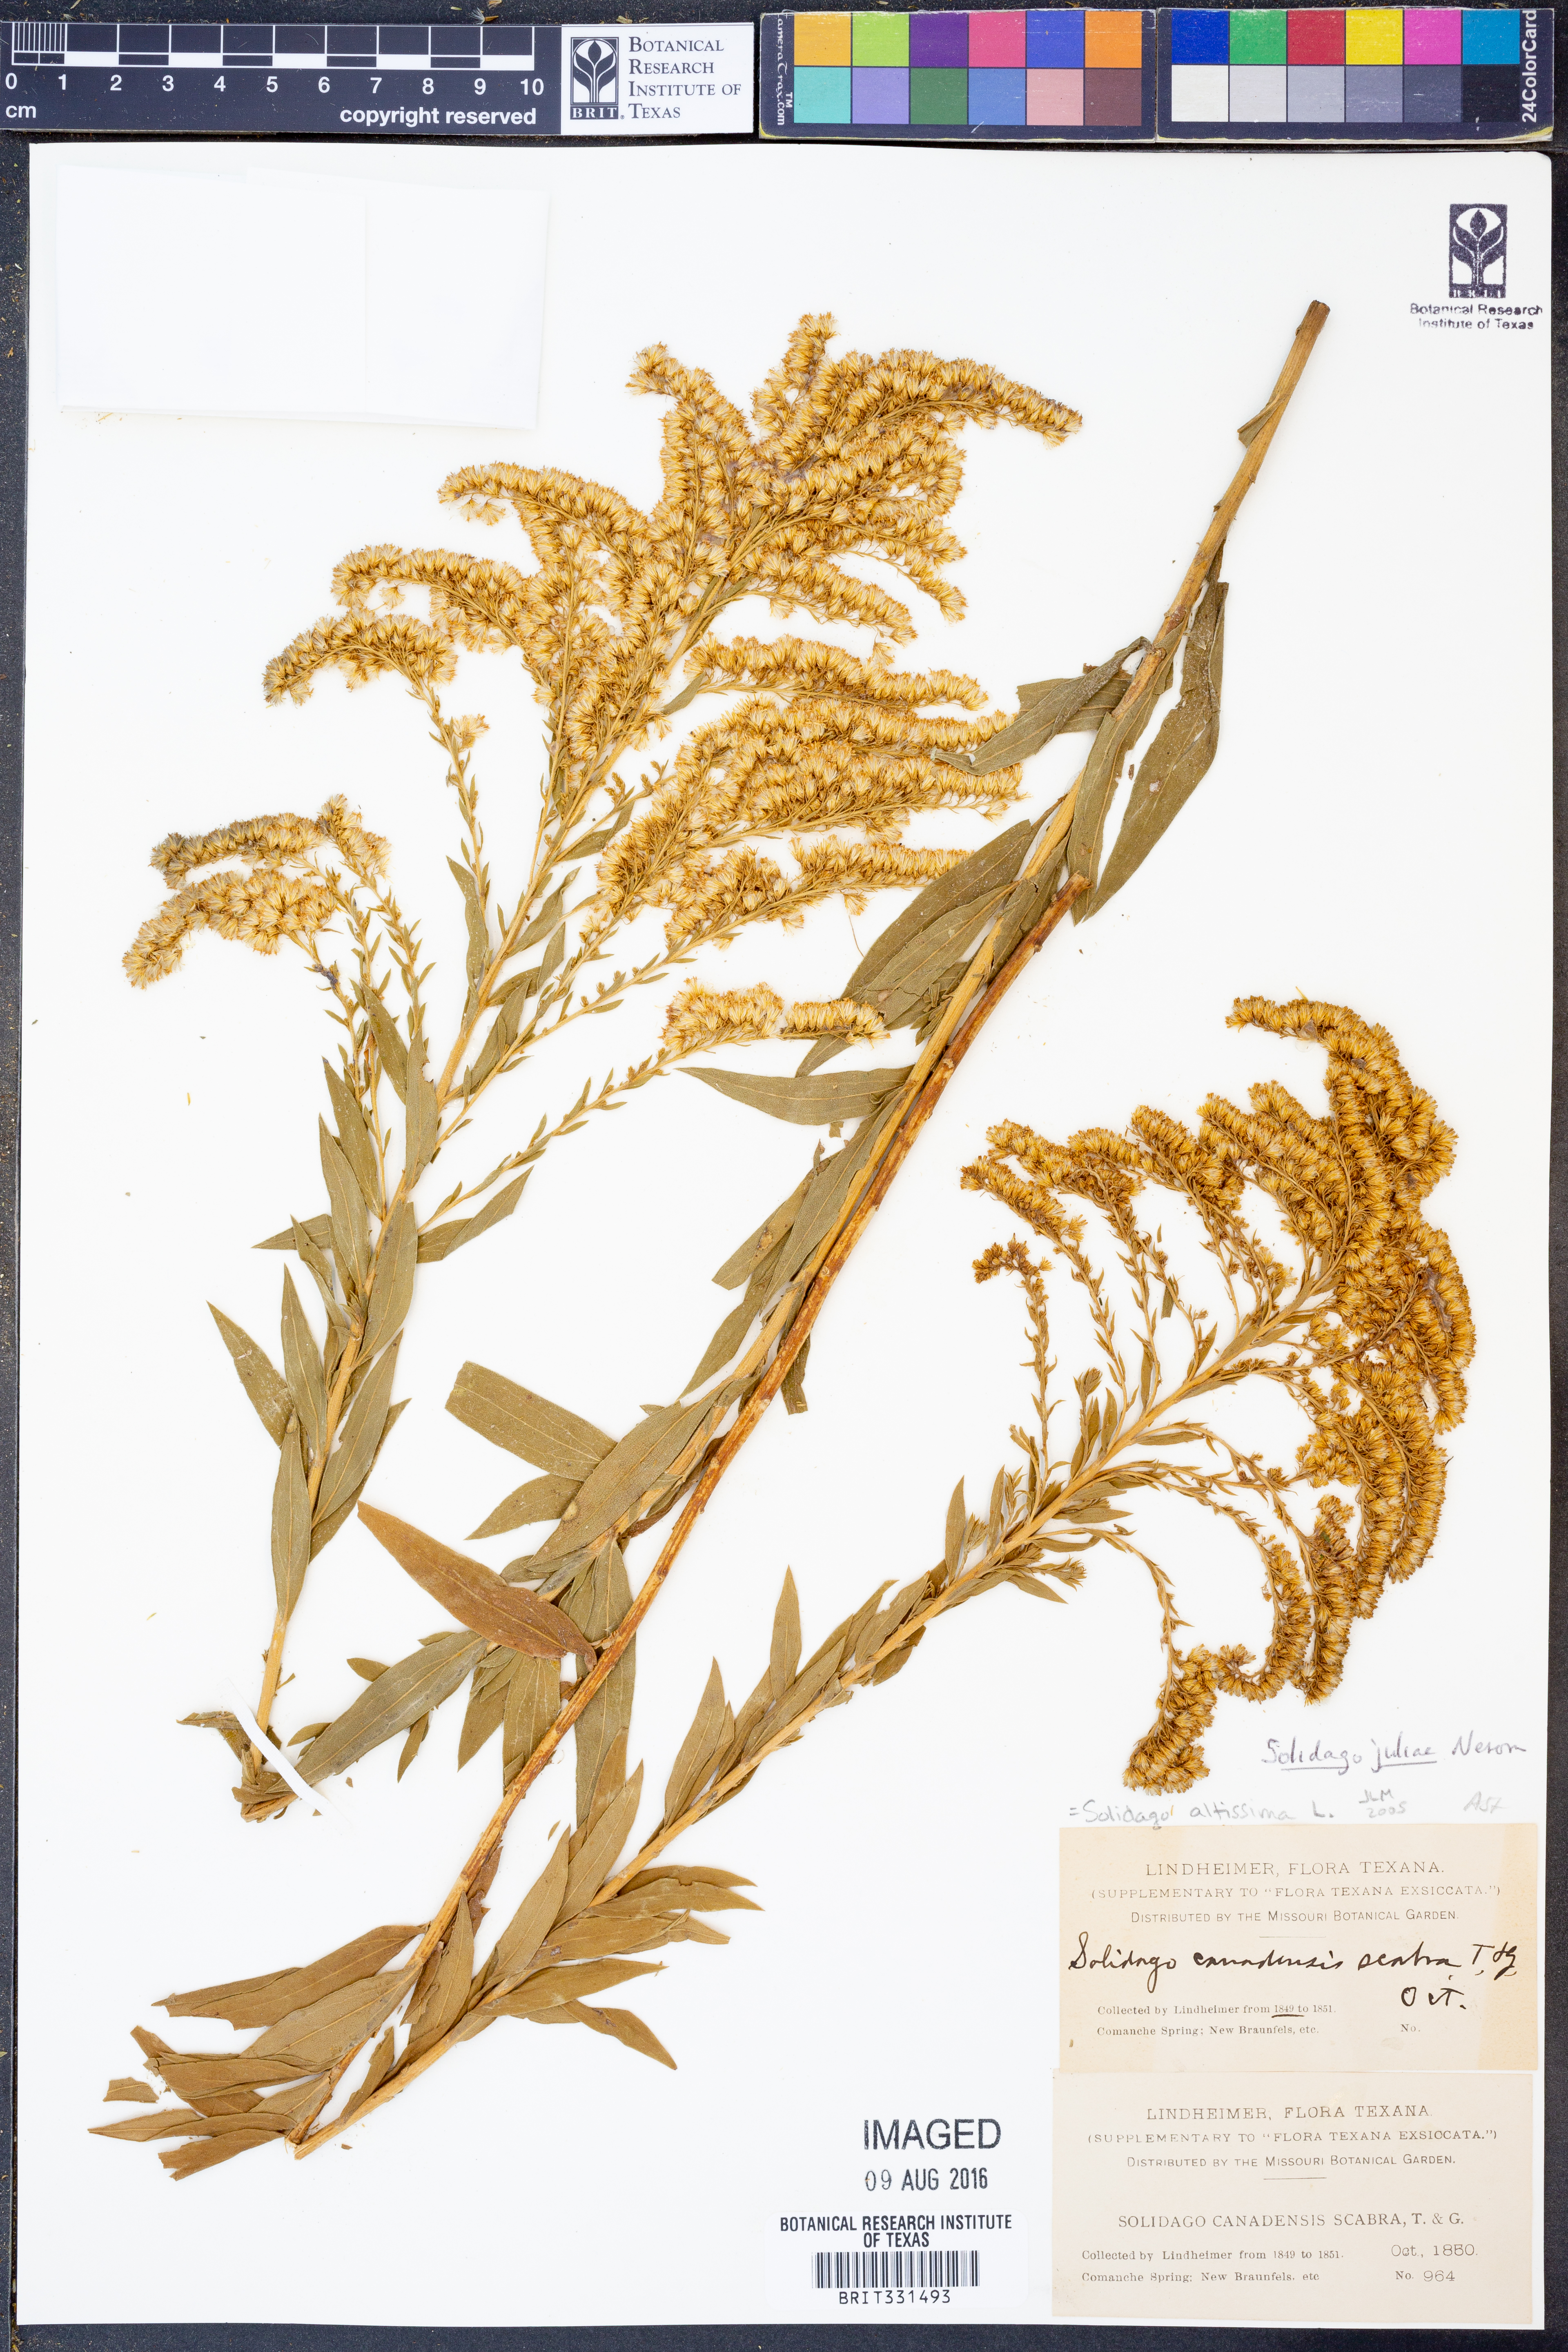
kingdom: Plantae
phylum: Tracheophyta
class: Magnoliopsida
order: Asterales
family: Asteraceae
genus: Solidago
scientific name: Solidago juliae
